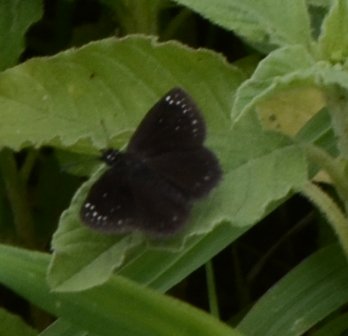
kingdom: Animalia
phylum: Arthropoda
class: Insecta
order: Lepidoptera
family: Hesperiidae
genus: Pholisora
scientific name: Pholisora catullus
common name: Common Sootywing
